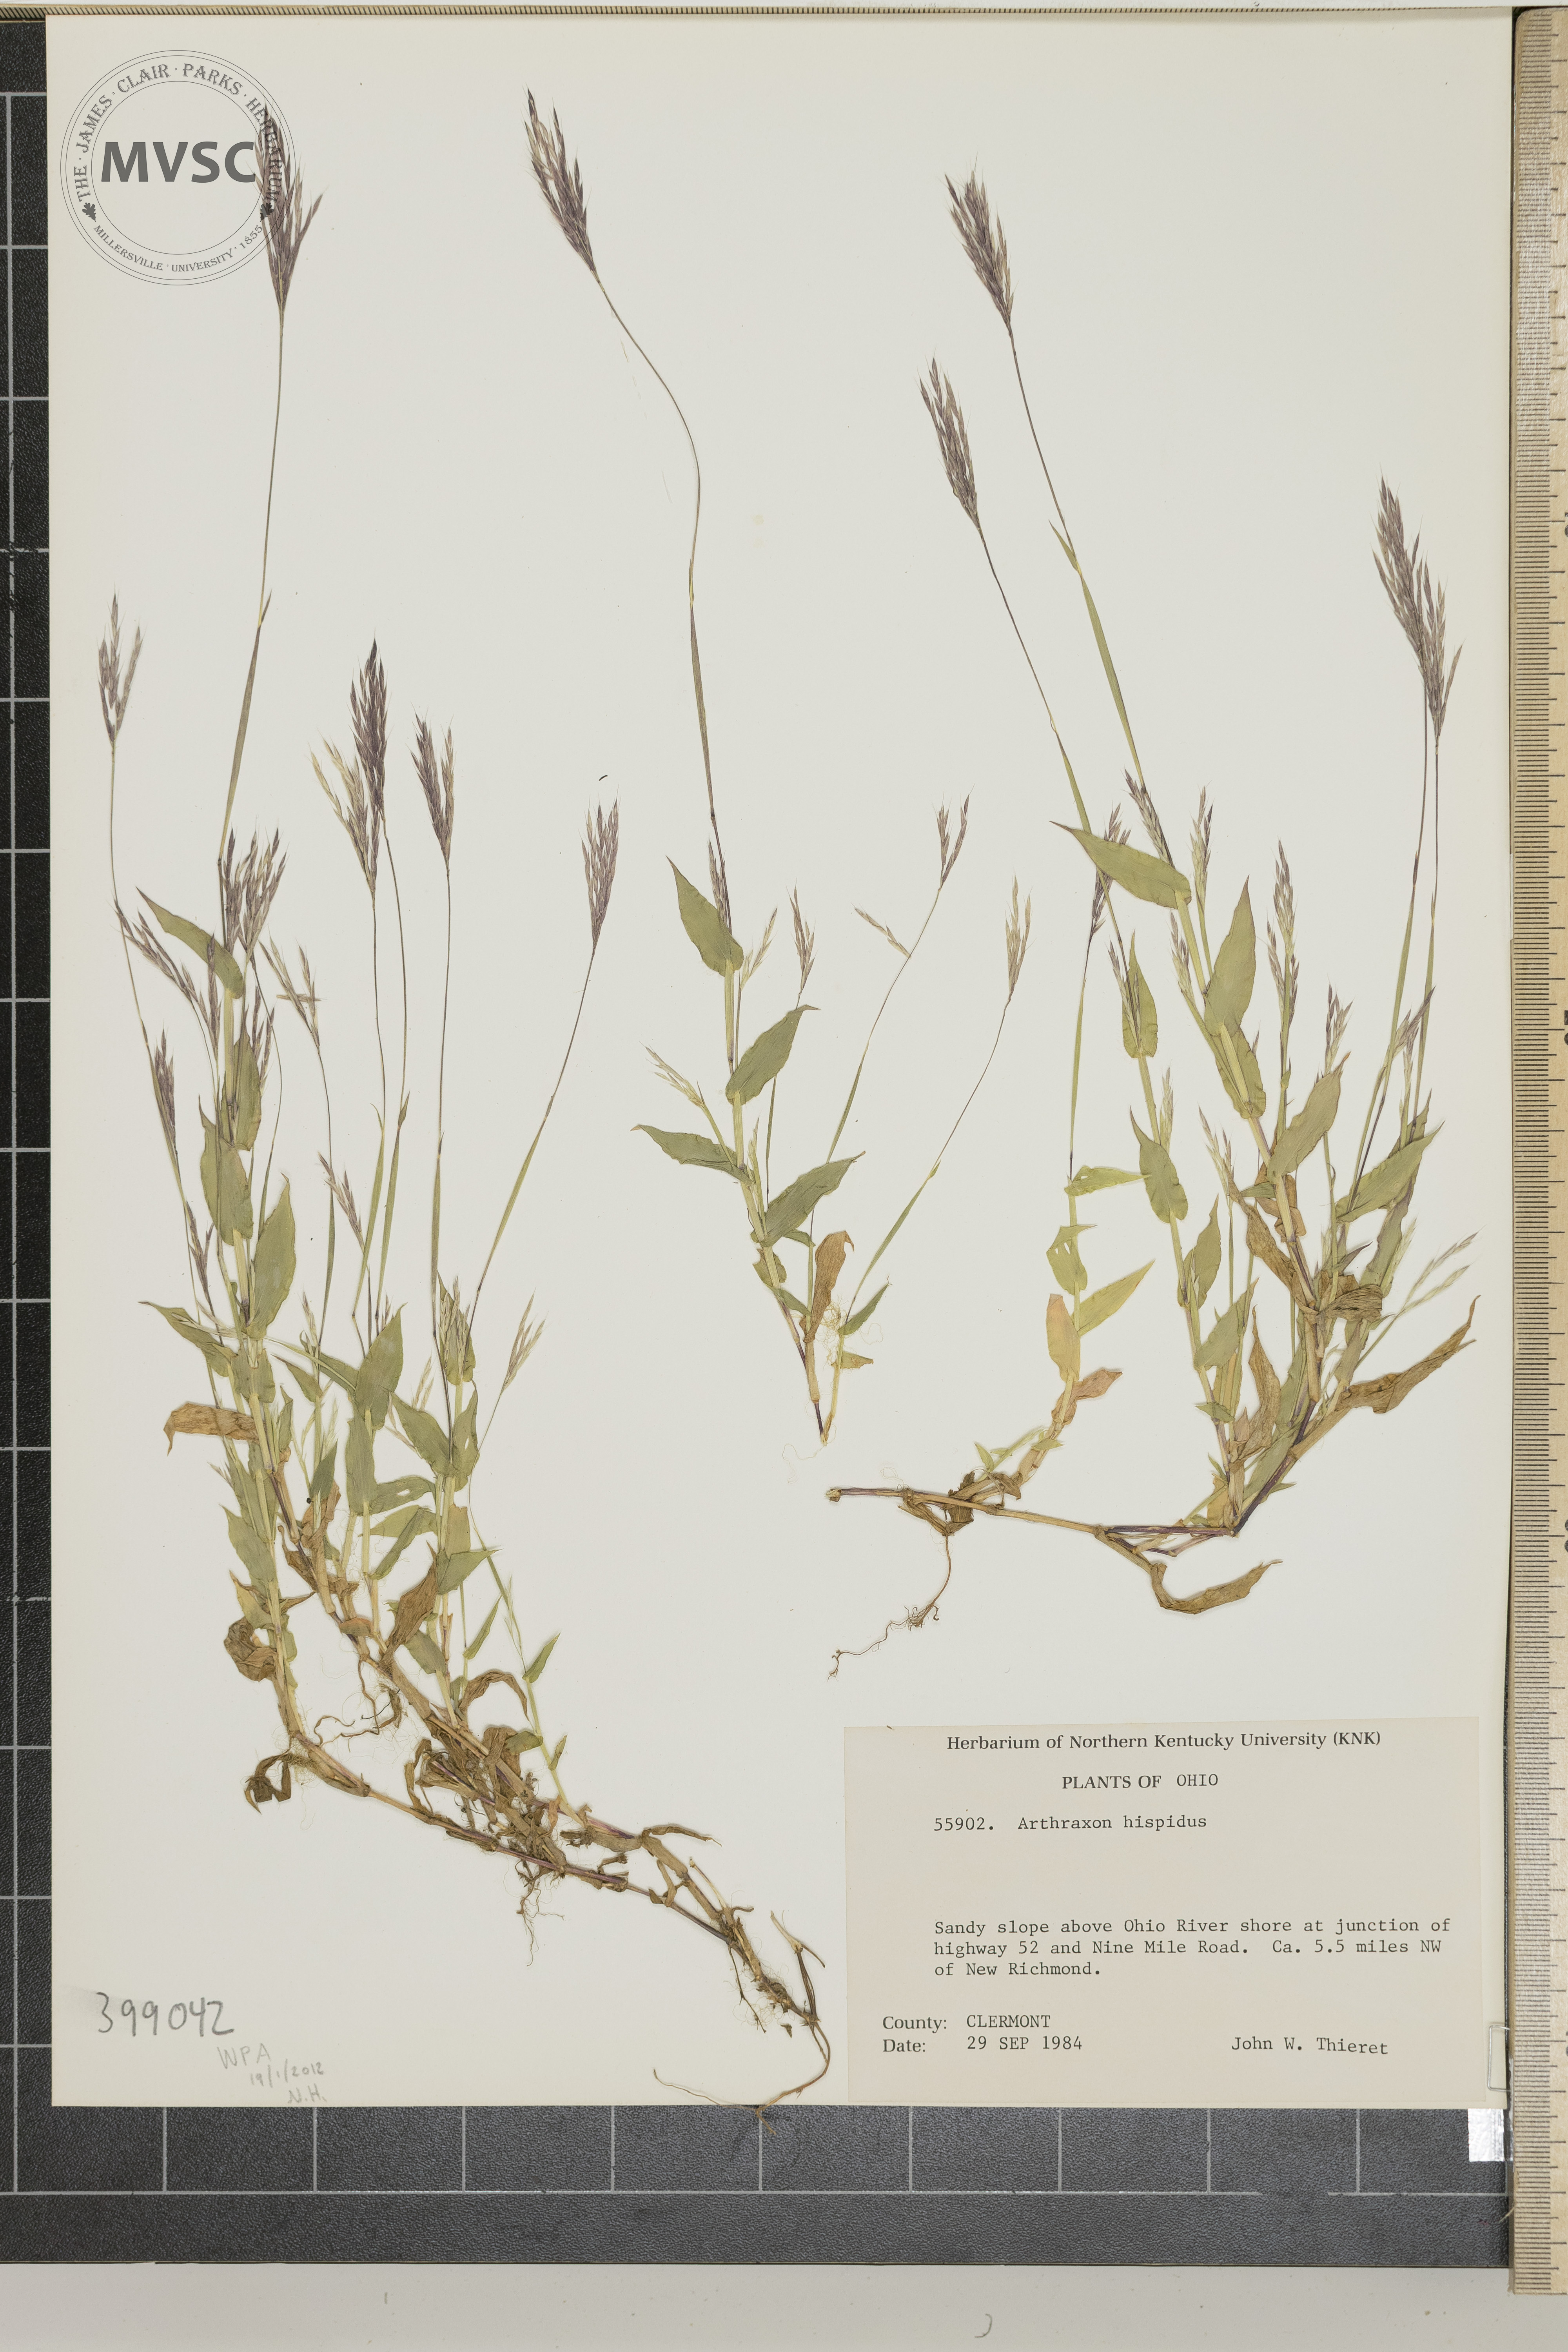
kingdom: Plantae
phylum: Tracheophyta
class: Liliopsida
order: Poales
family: Poaceae
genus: Arthraxon
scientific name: Arthraxon hispidus
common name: small carpgrass
